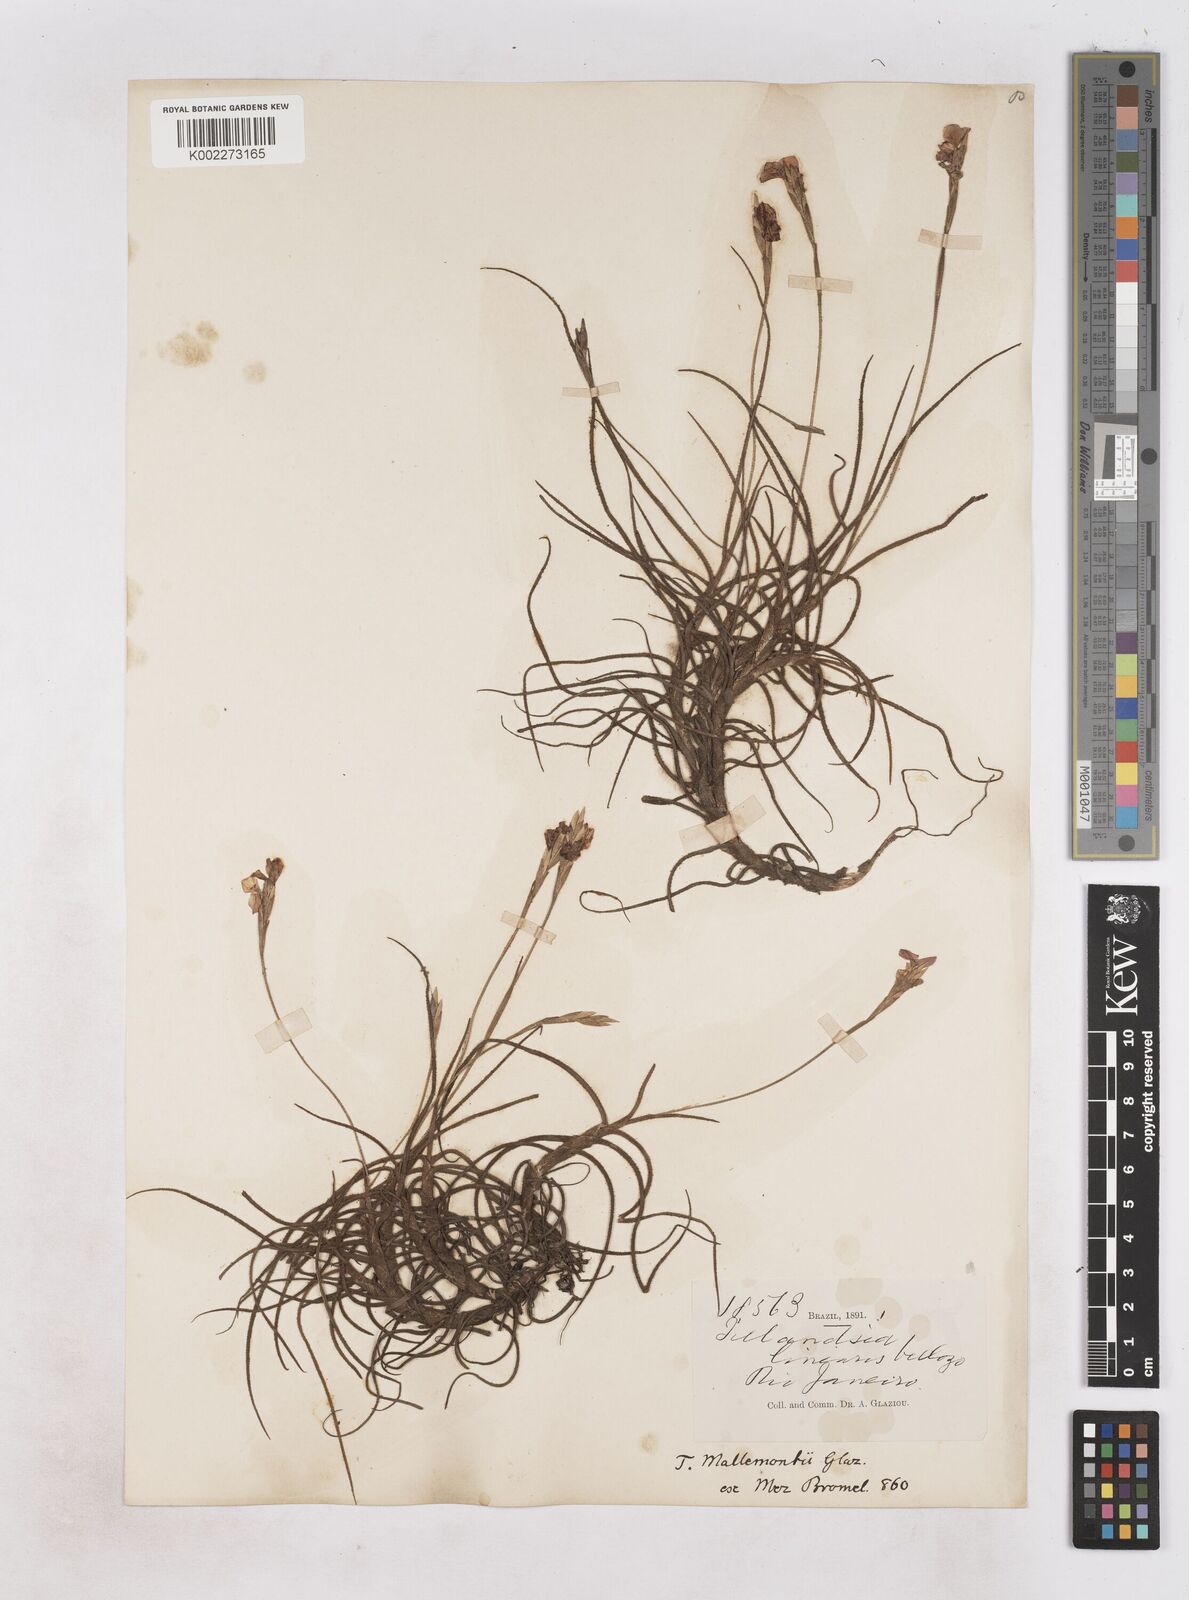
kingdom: Plantae
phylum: Tracheophyta
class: Liliopsida
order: Poales
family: Bromeliaceae
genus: Tillandsia
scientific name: Tillandsia mallemontii
